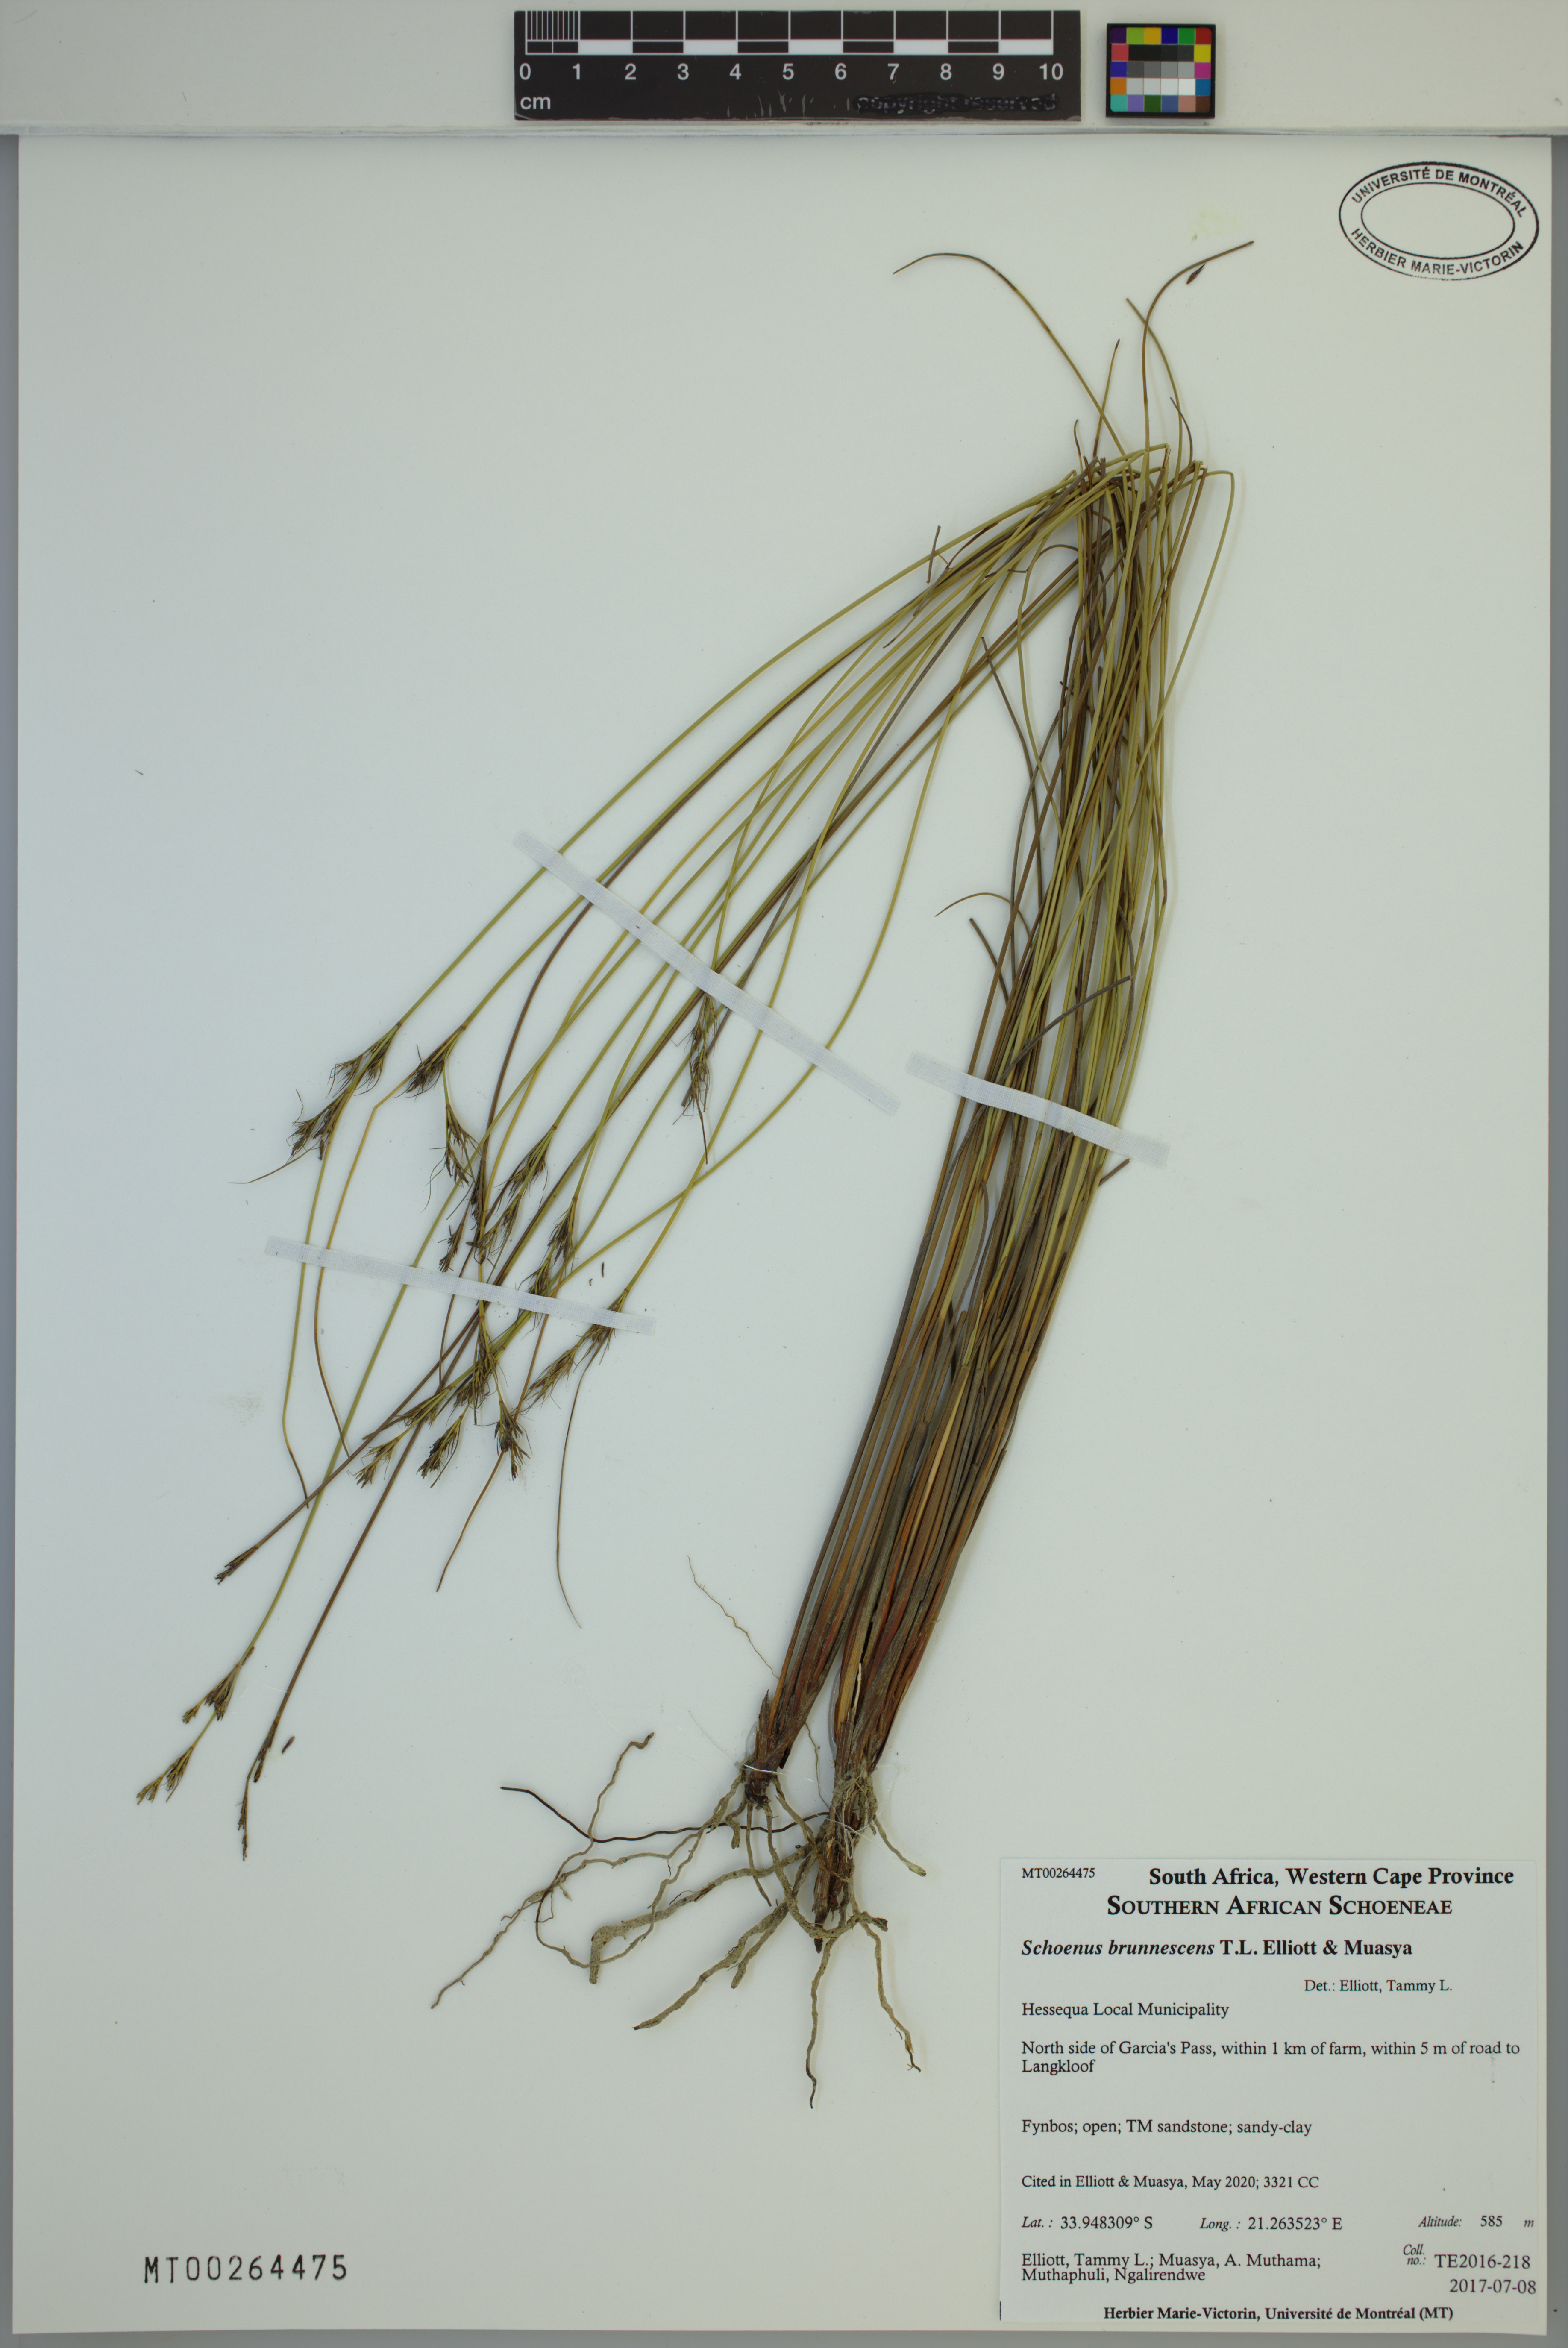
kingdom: Plantae
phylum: Tracheophyta
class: Liliopsida
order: Poales
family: Cyperaceae
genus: Schoenus
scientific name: Schoenus brunnescens
